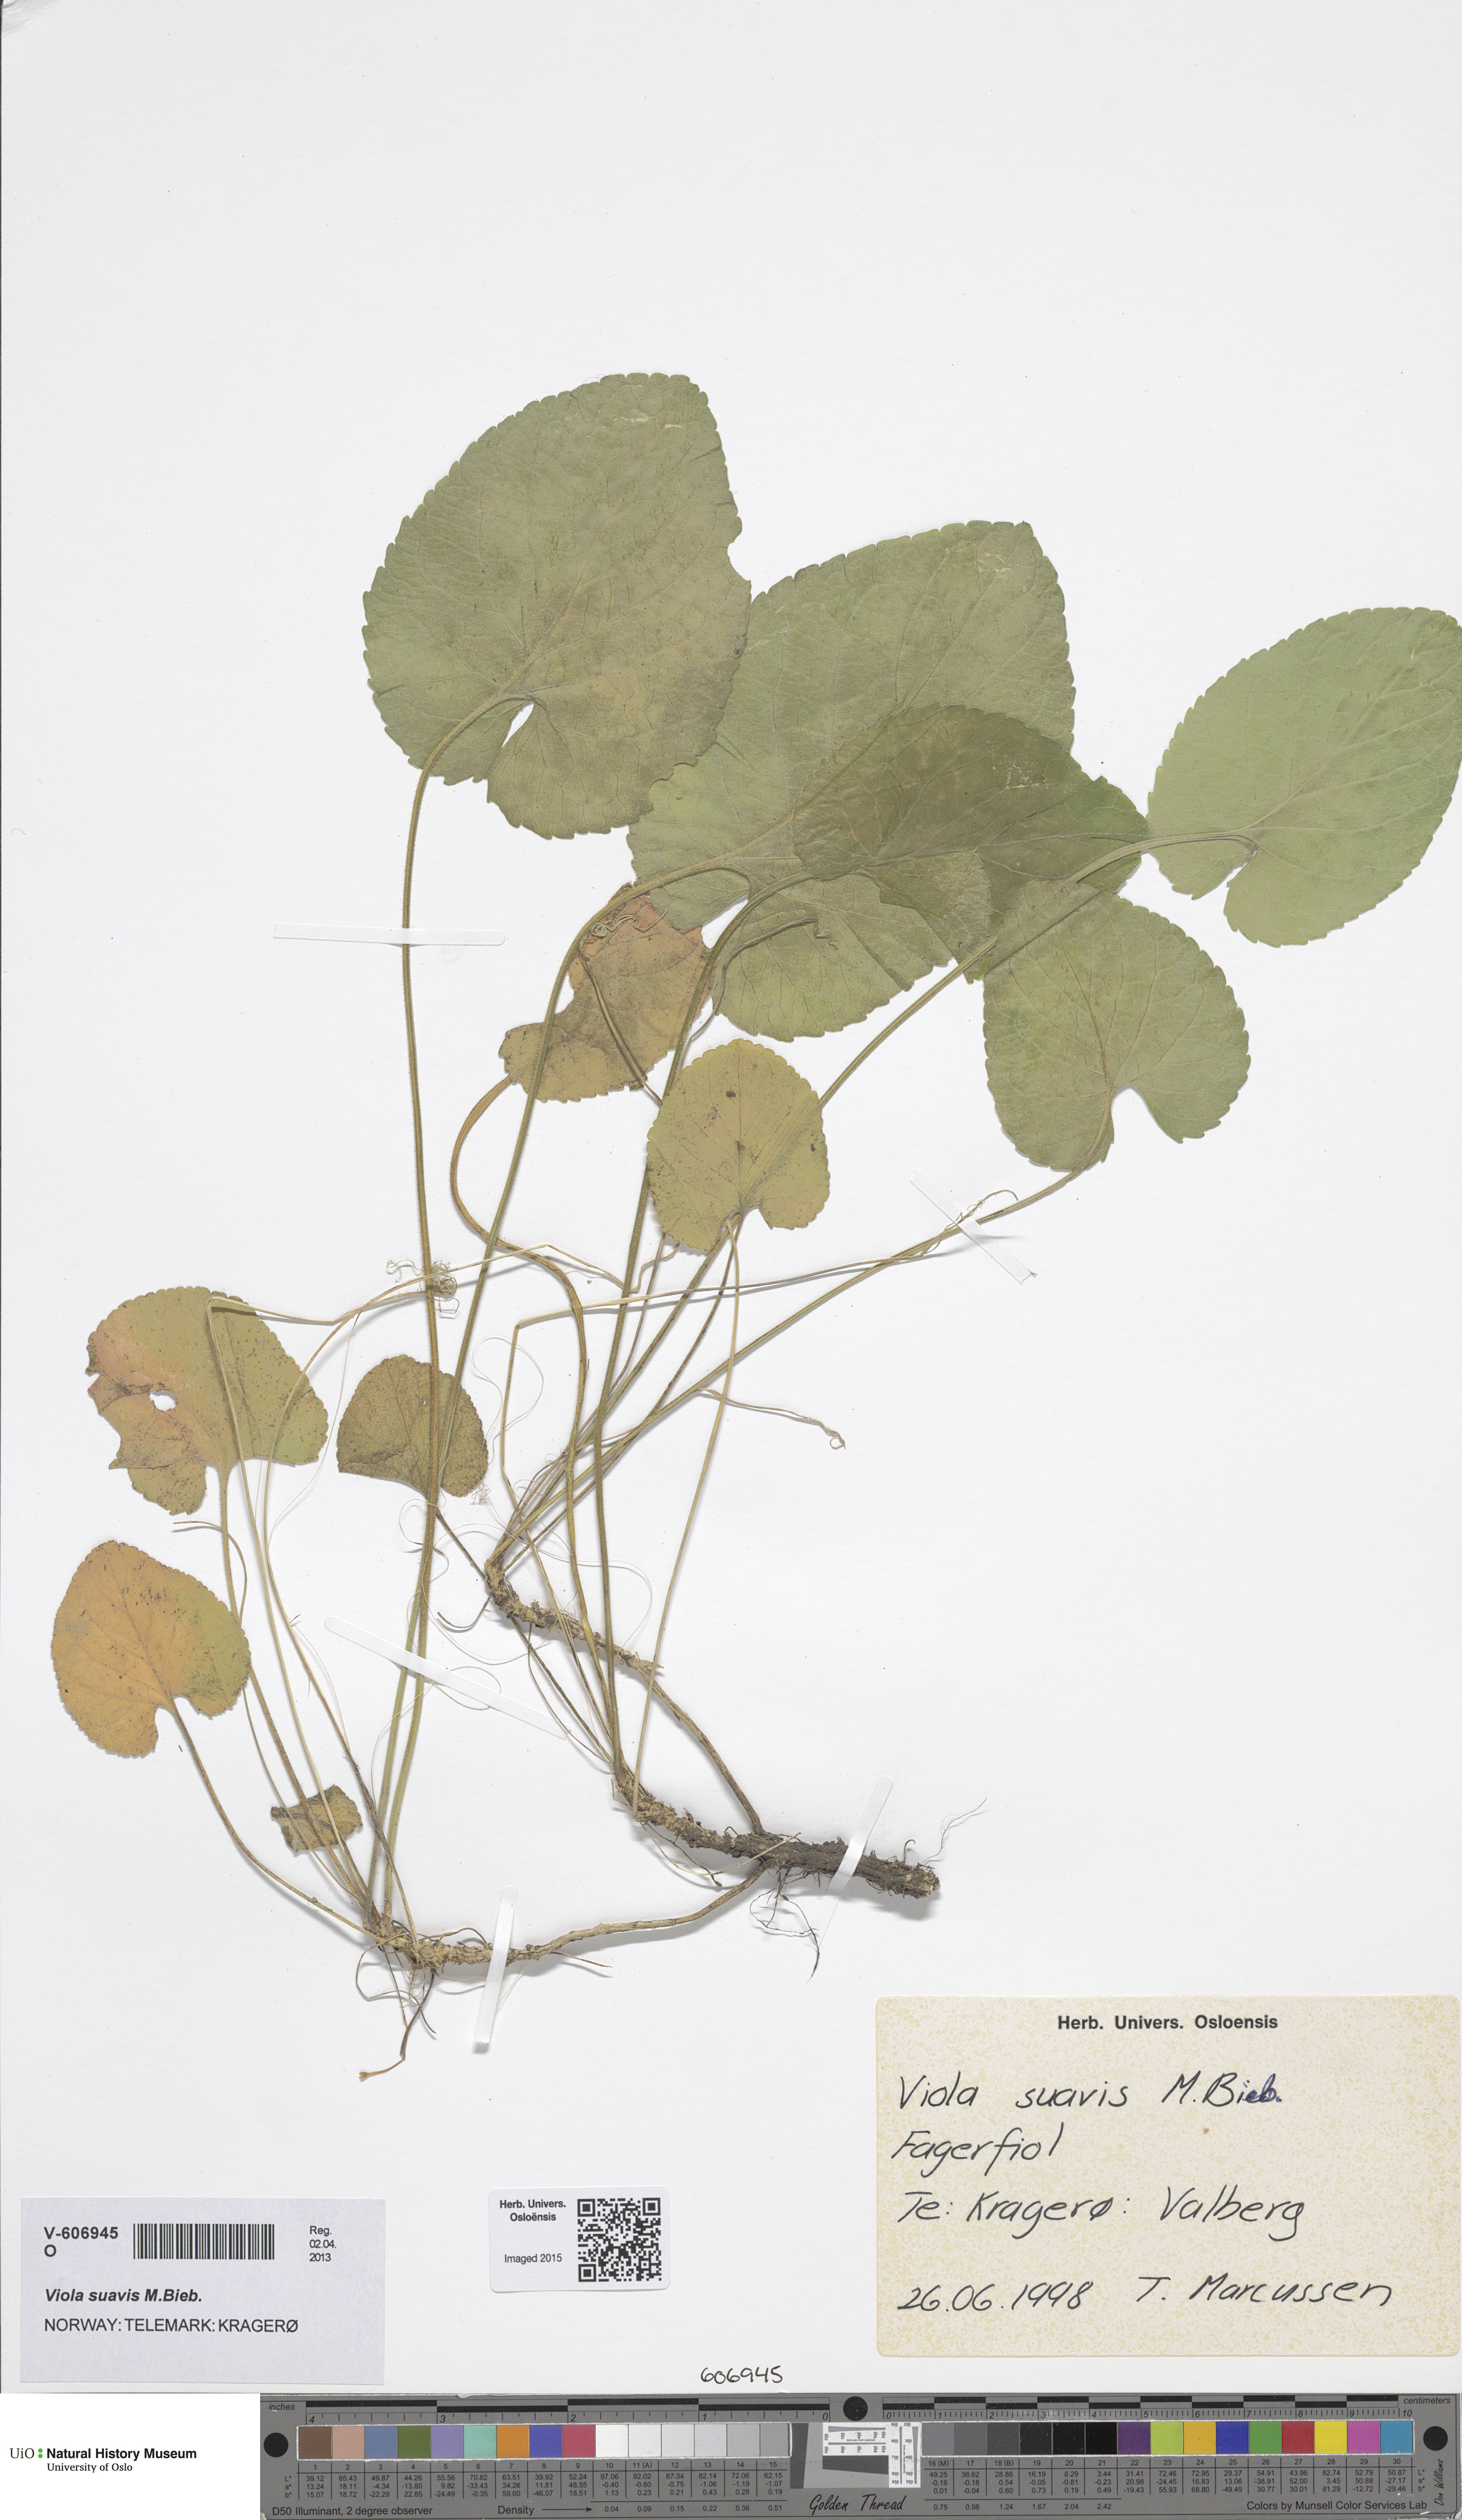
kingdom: Plantae
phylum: Tracheophyta
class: Magnoliopsida
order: Malpighiales
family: Violaceae
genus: Viola
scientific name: Viola suavis
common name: Russian violet
